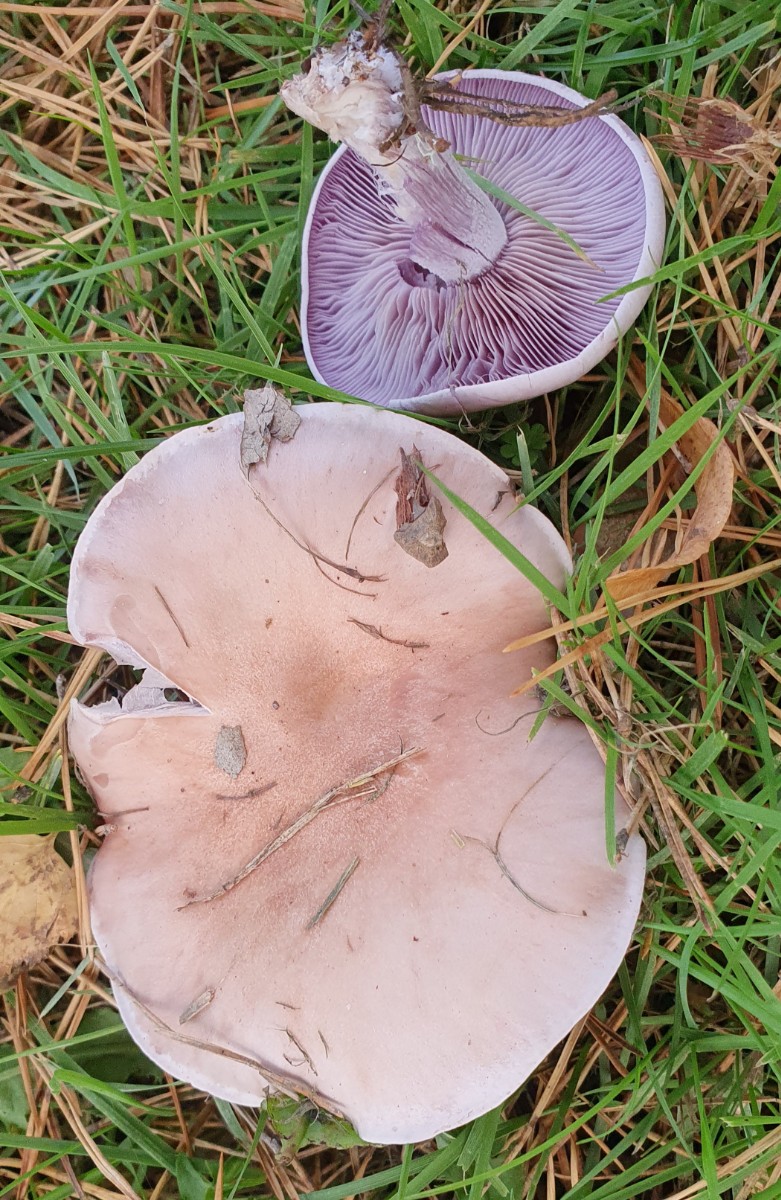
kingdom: Fungi
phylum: Basidiomycota
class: Agaricomycetes
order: Agaricales
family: Tricholomataceae
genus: Lepista
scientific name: Lepista nuda
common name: violet hekseringshat
